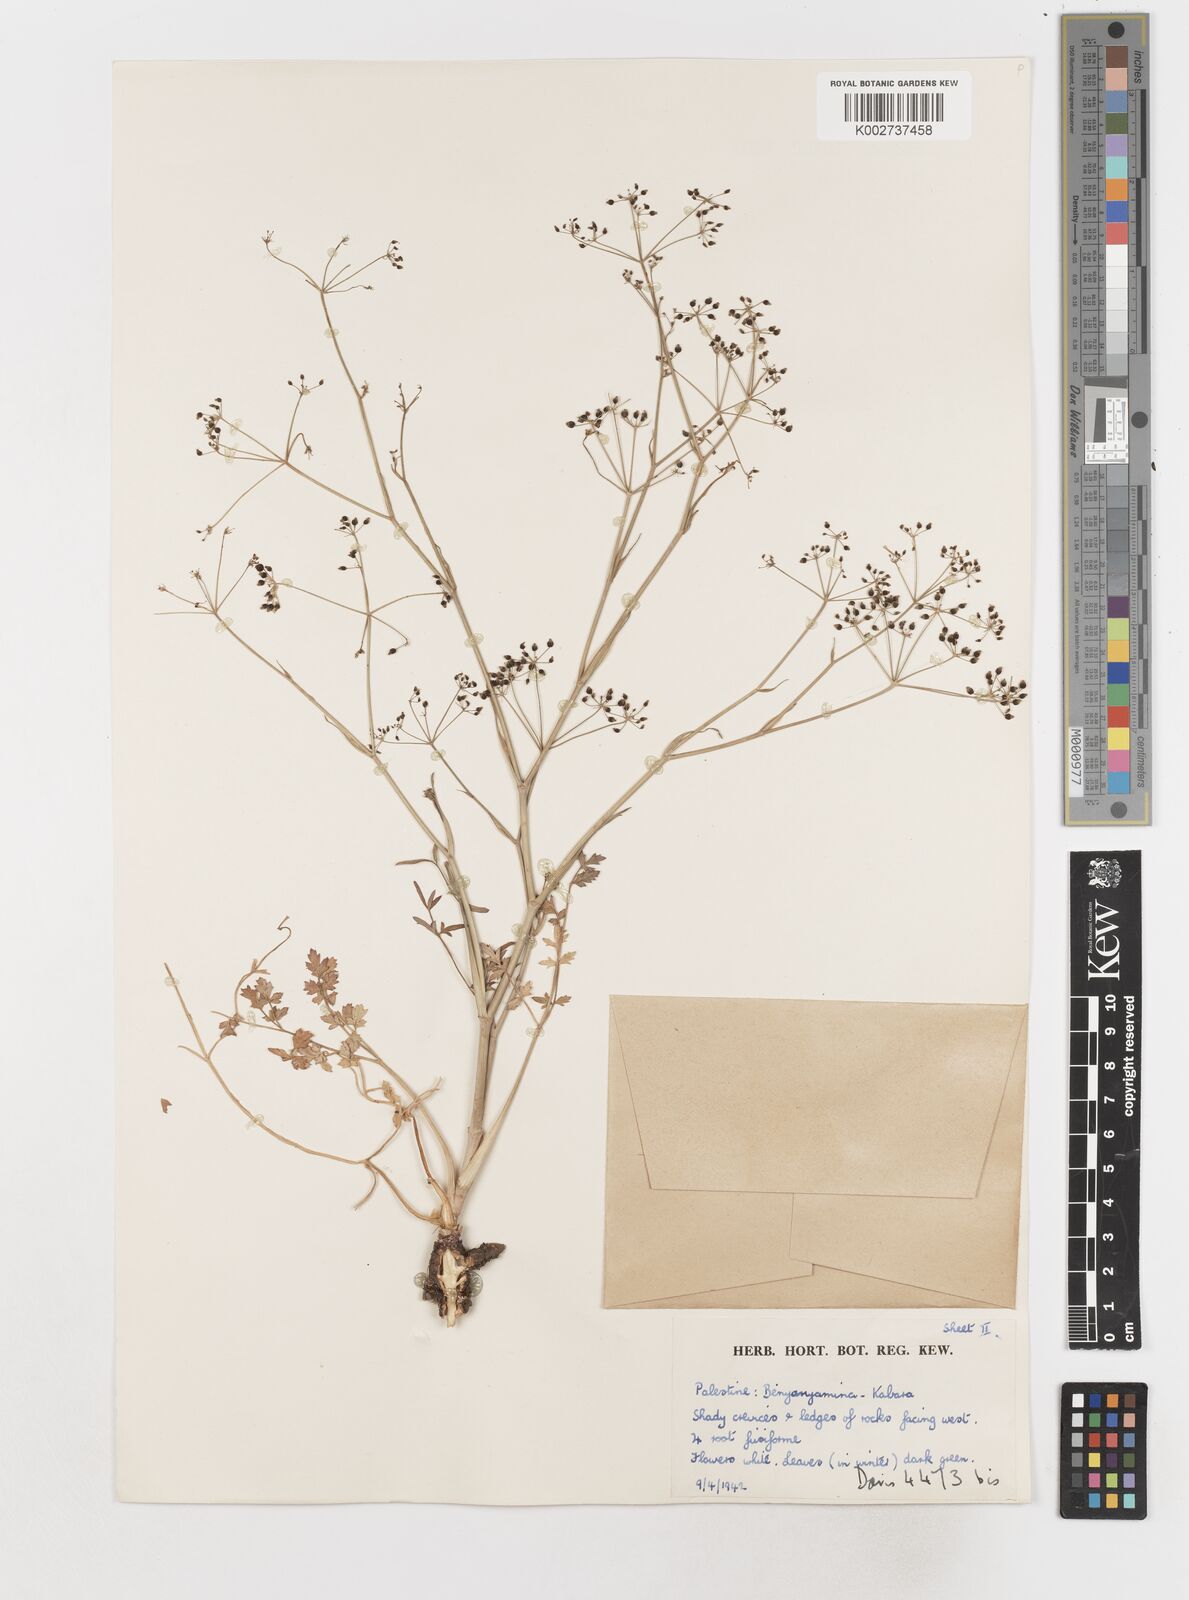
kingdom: Plantae
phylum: Tracheophyta
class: Magnoliopsida
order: Apiales
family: Apiaceae
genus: Scaligeria
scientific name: Scaligeria
